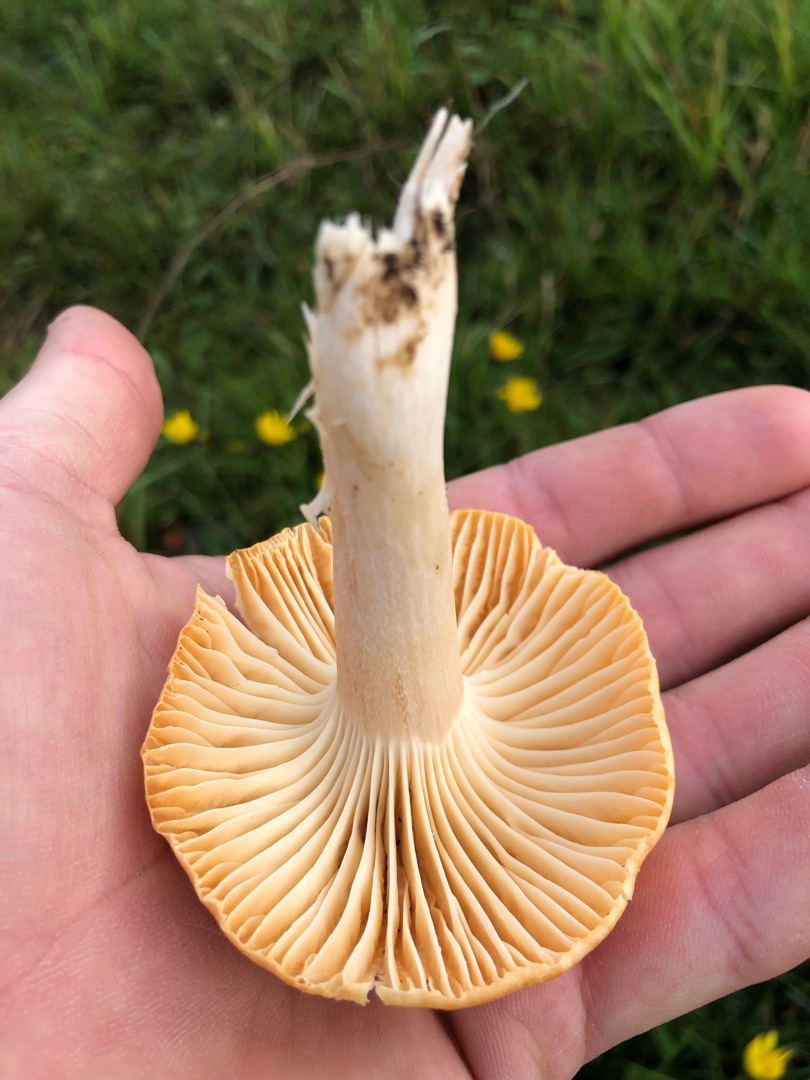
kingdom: Fungi
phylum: Basidiomycota
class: Agaricomycetes
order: Agaricales
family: Hygrophoraceae
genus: Cuphophyllus
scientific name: Cuphophyllus pratensis
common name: Eng-vokshat
